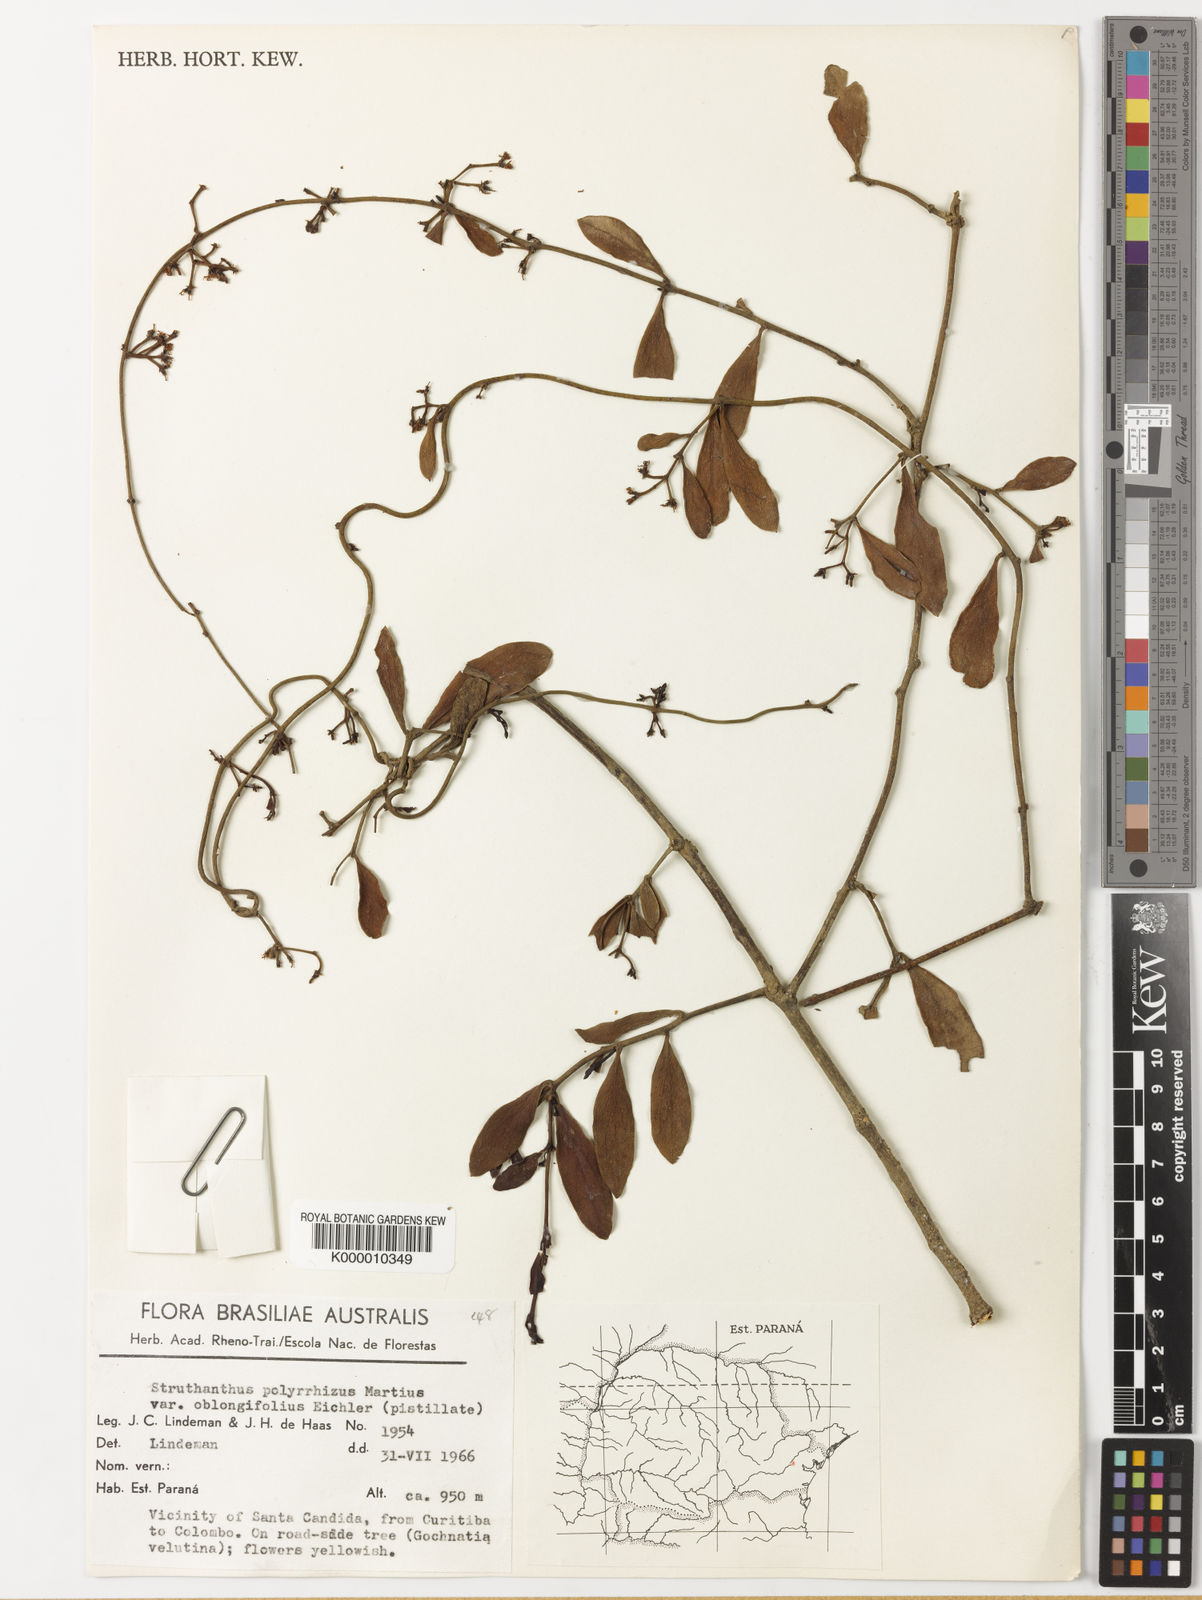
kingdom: Plantae
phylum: Tracheophyta
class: Magnoliopsida
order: Santalales
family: Loranthaceae
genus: Struthanthus
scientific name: Struthanthus retusus
